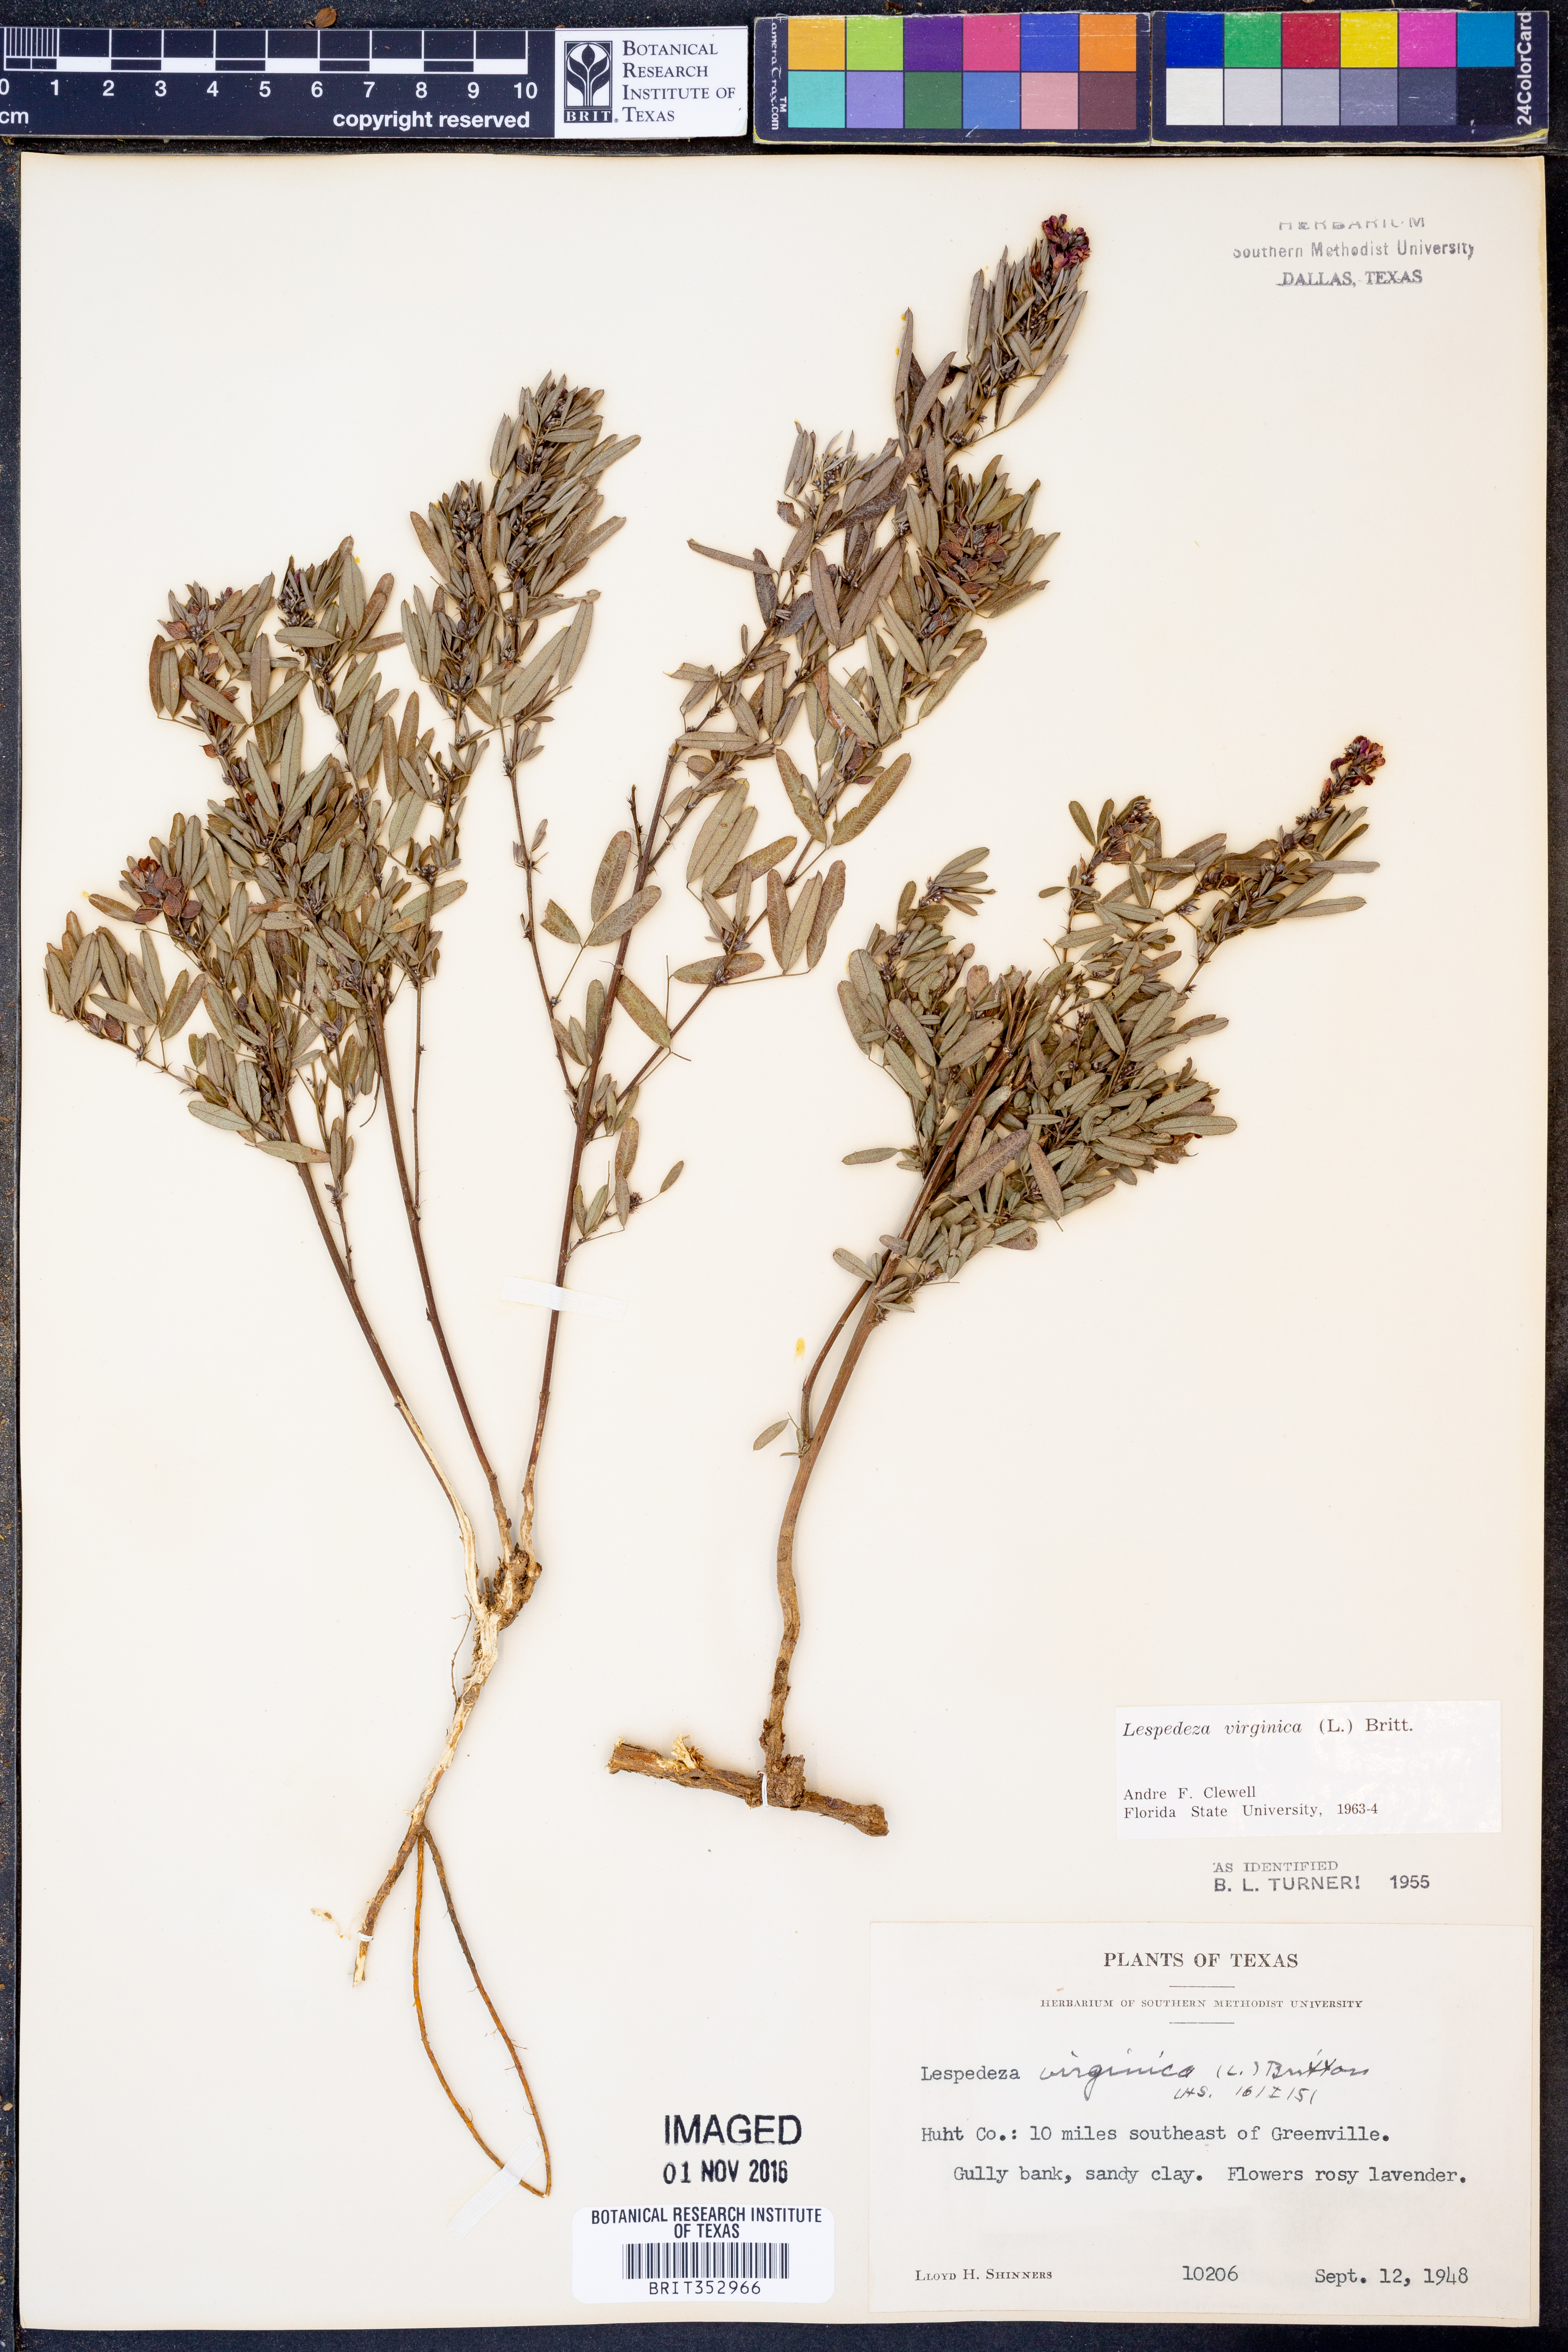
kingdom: Plantae
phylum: Tracheophyta
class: Magnoliopsida
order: Fabales
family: Fabaceae
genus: Lespedeza
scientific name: Lespedeza virginica
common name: Slender bush-clover
